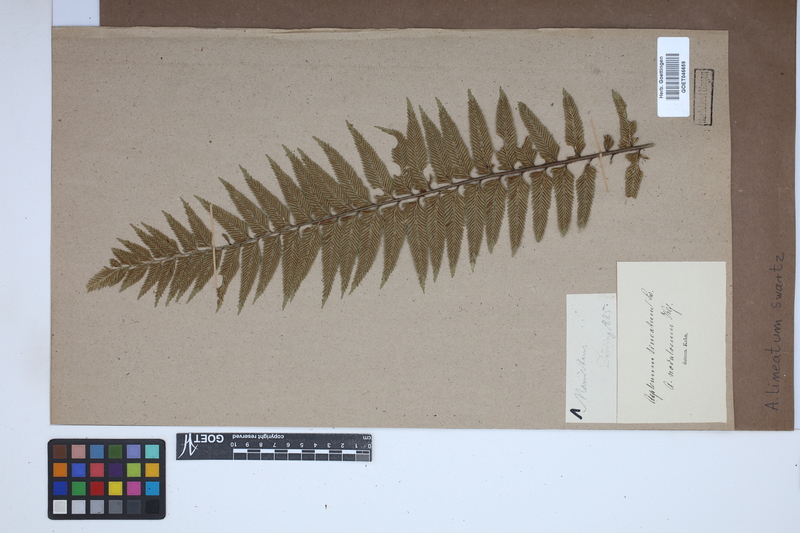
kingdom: Plantae
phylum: Tracheophyta
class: Polypodiopsida
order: Polypodiales
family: Aspleniaceae
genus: Asplenium
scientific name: Asplenium daucifolium
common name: Mauritius spleenwort
